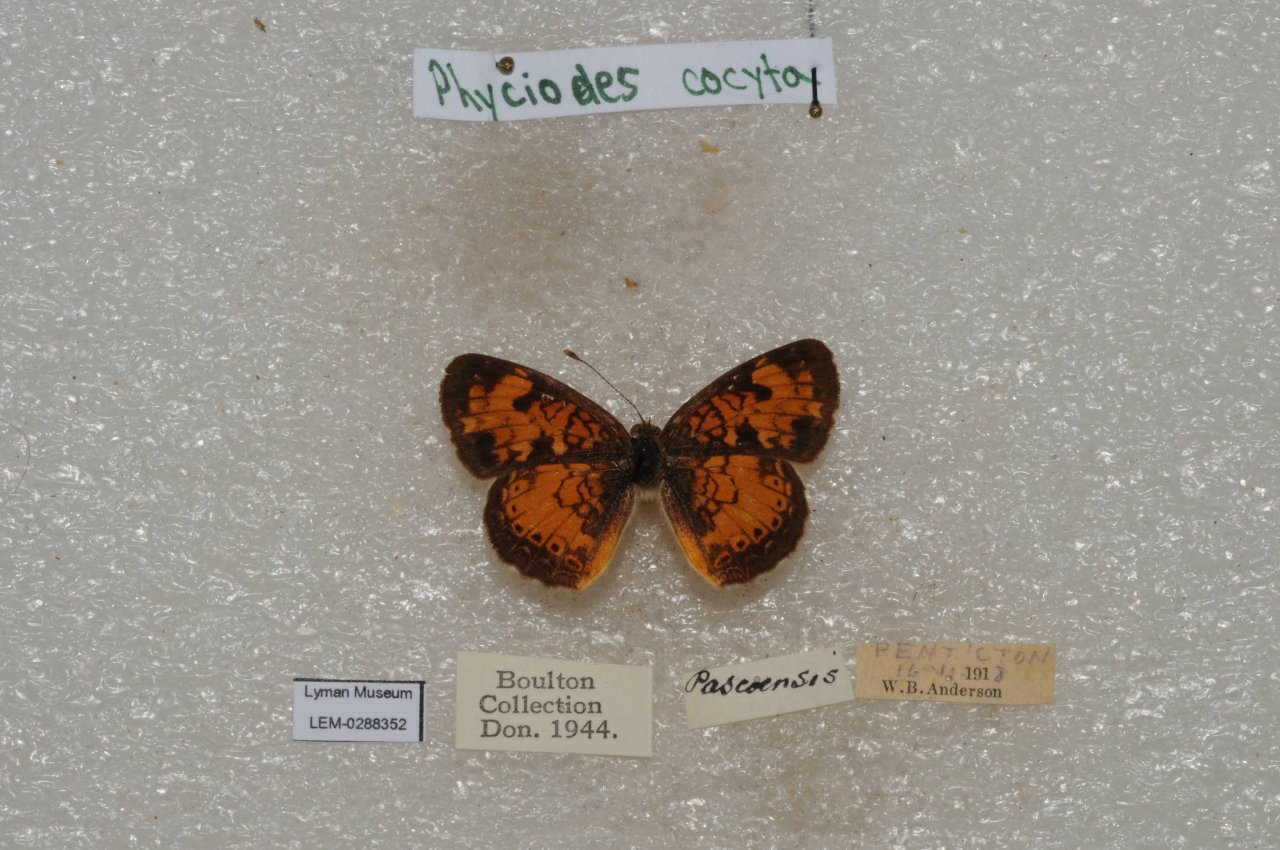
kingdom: Animalia
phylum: Arthropoda
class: Insecta
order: Lepidoptera
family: Nymphalidae
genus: Phyciodes
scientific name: Phyciodes tharos
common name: Northern Crescent
